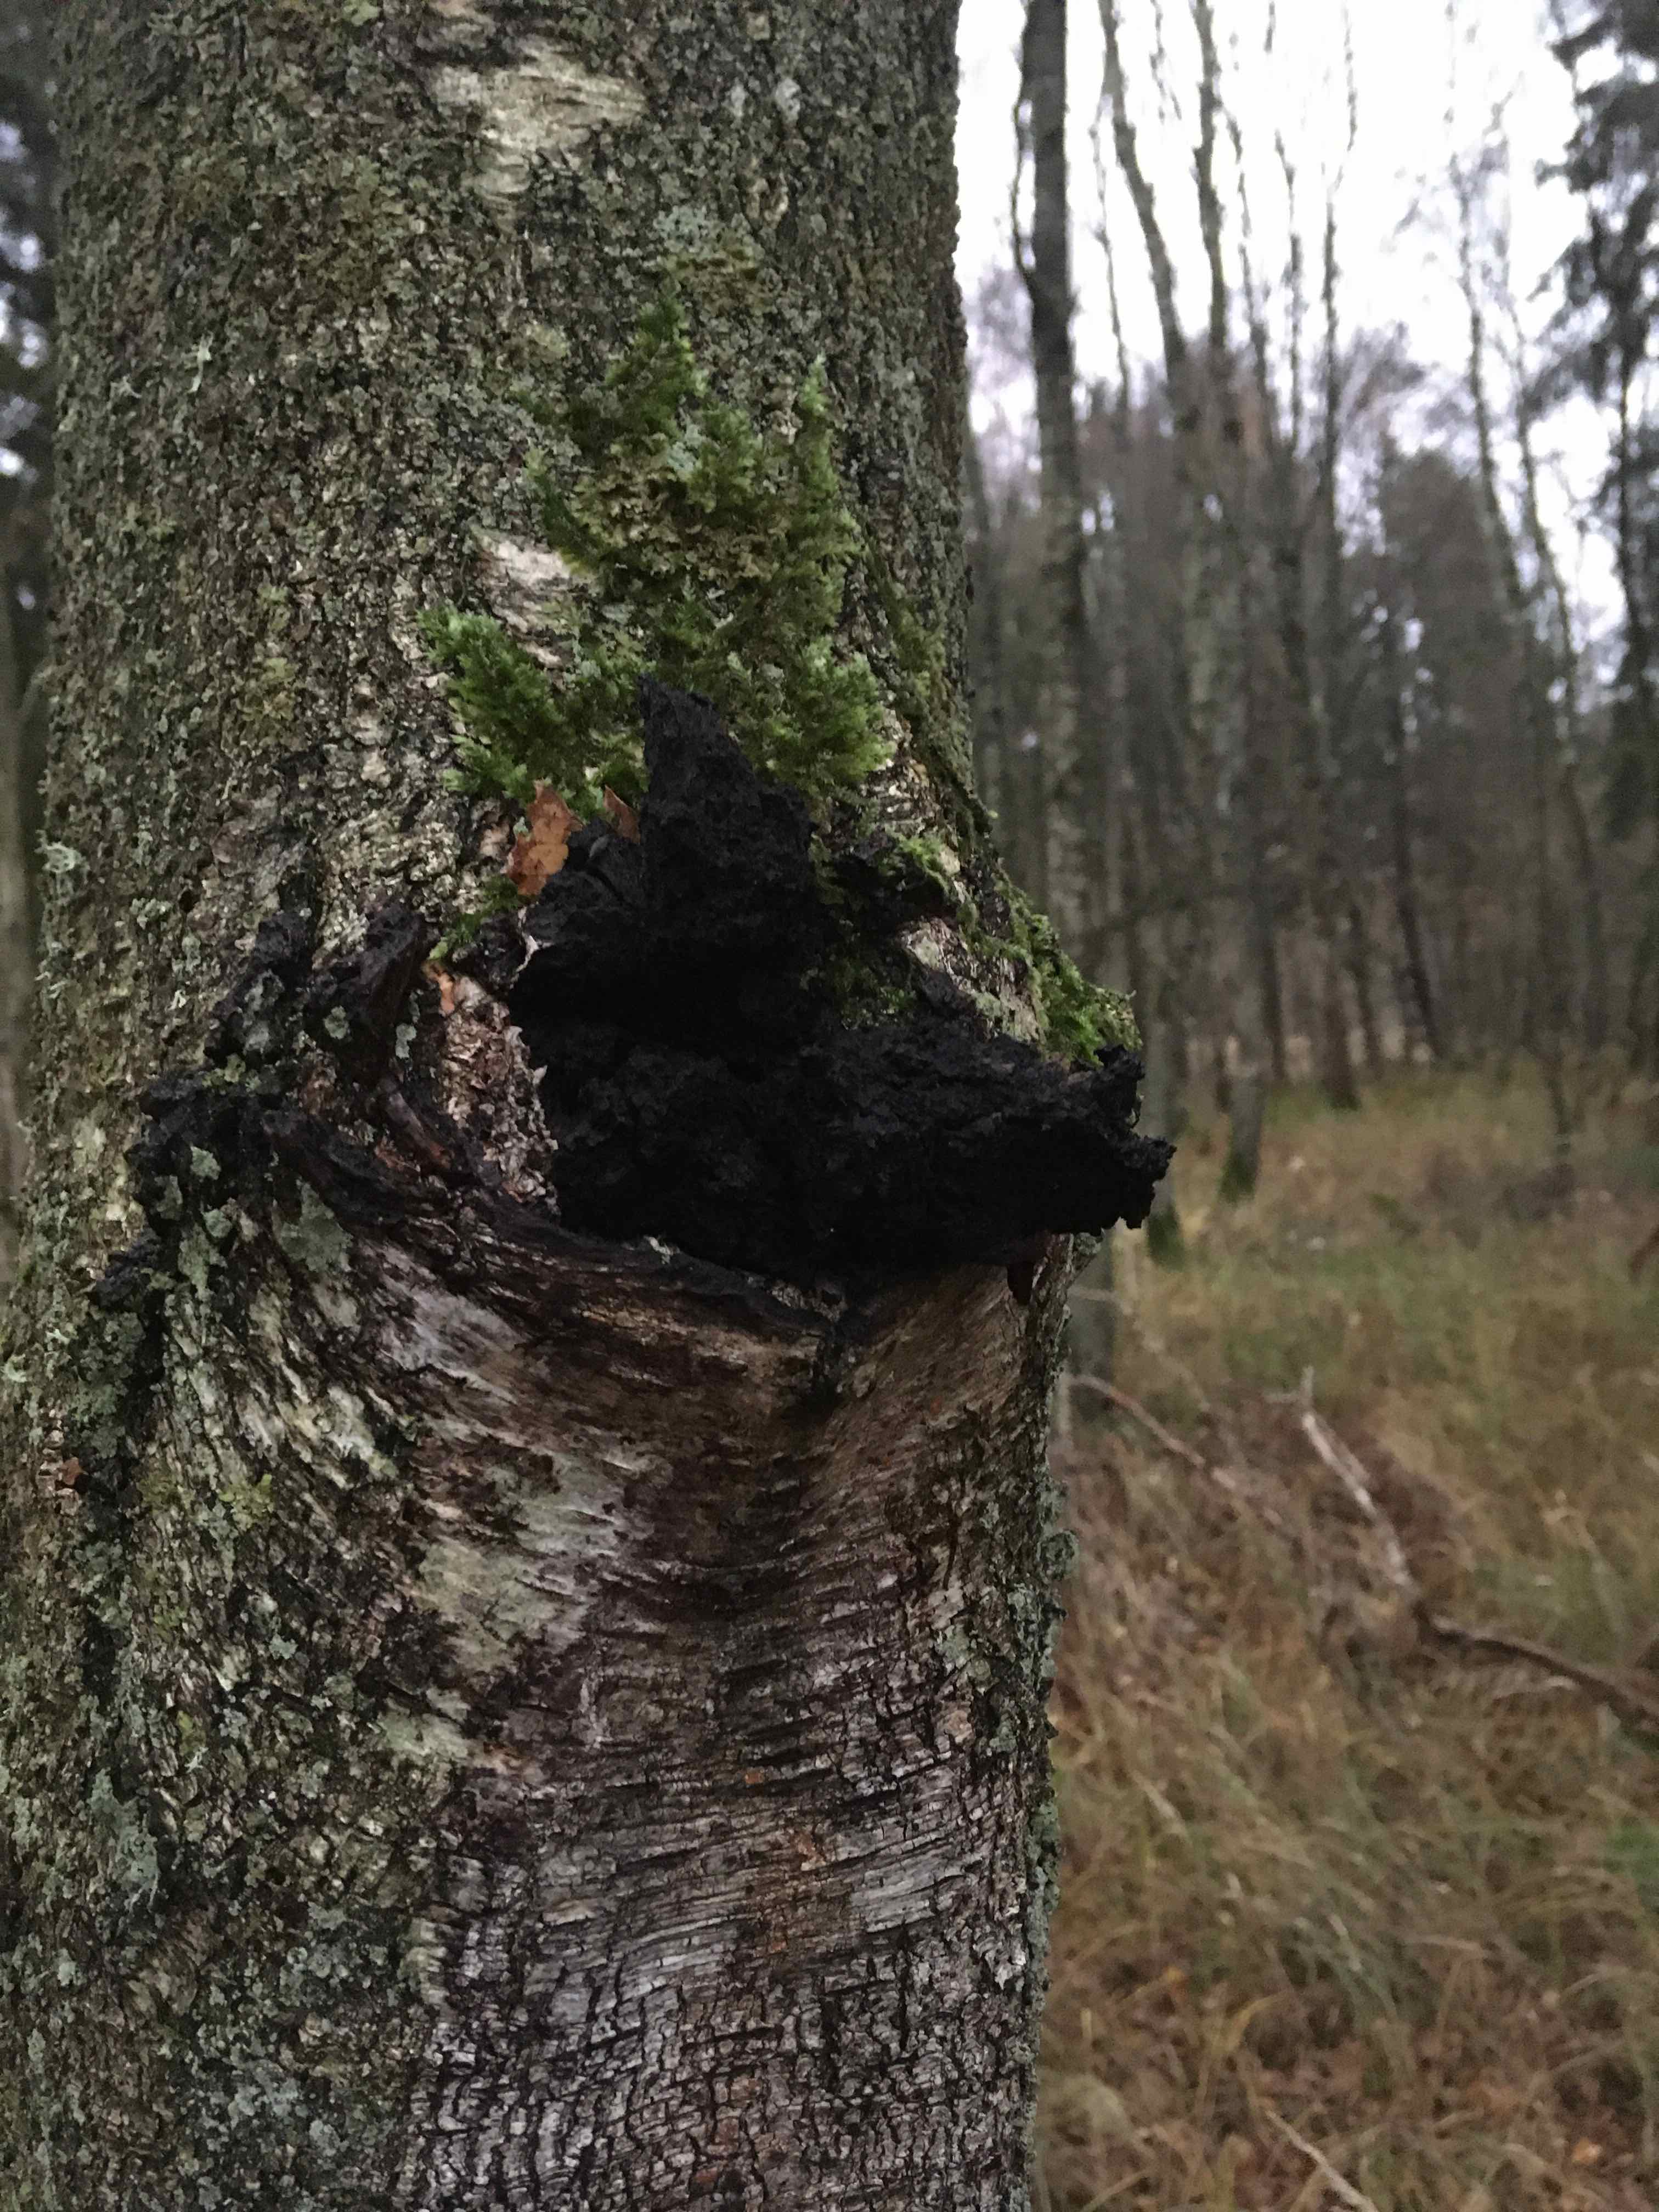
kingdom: Fungi
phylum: Basidiomycota
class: Agaricomycetes
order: Hymenochaetales
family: Hymenochaetaceae
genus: Inonotus
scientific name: Inonotus obliquus
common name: birke-spejlporesvamp
